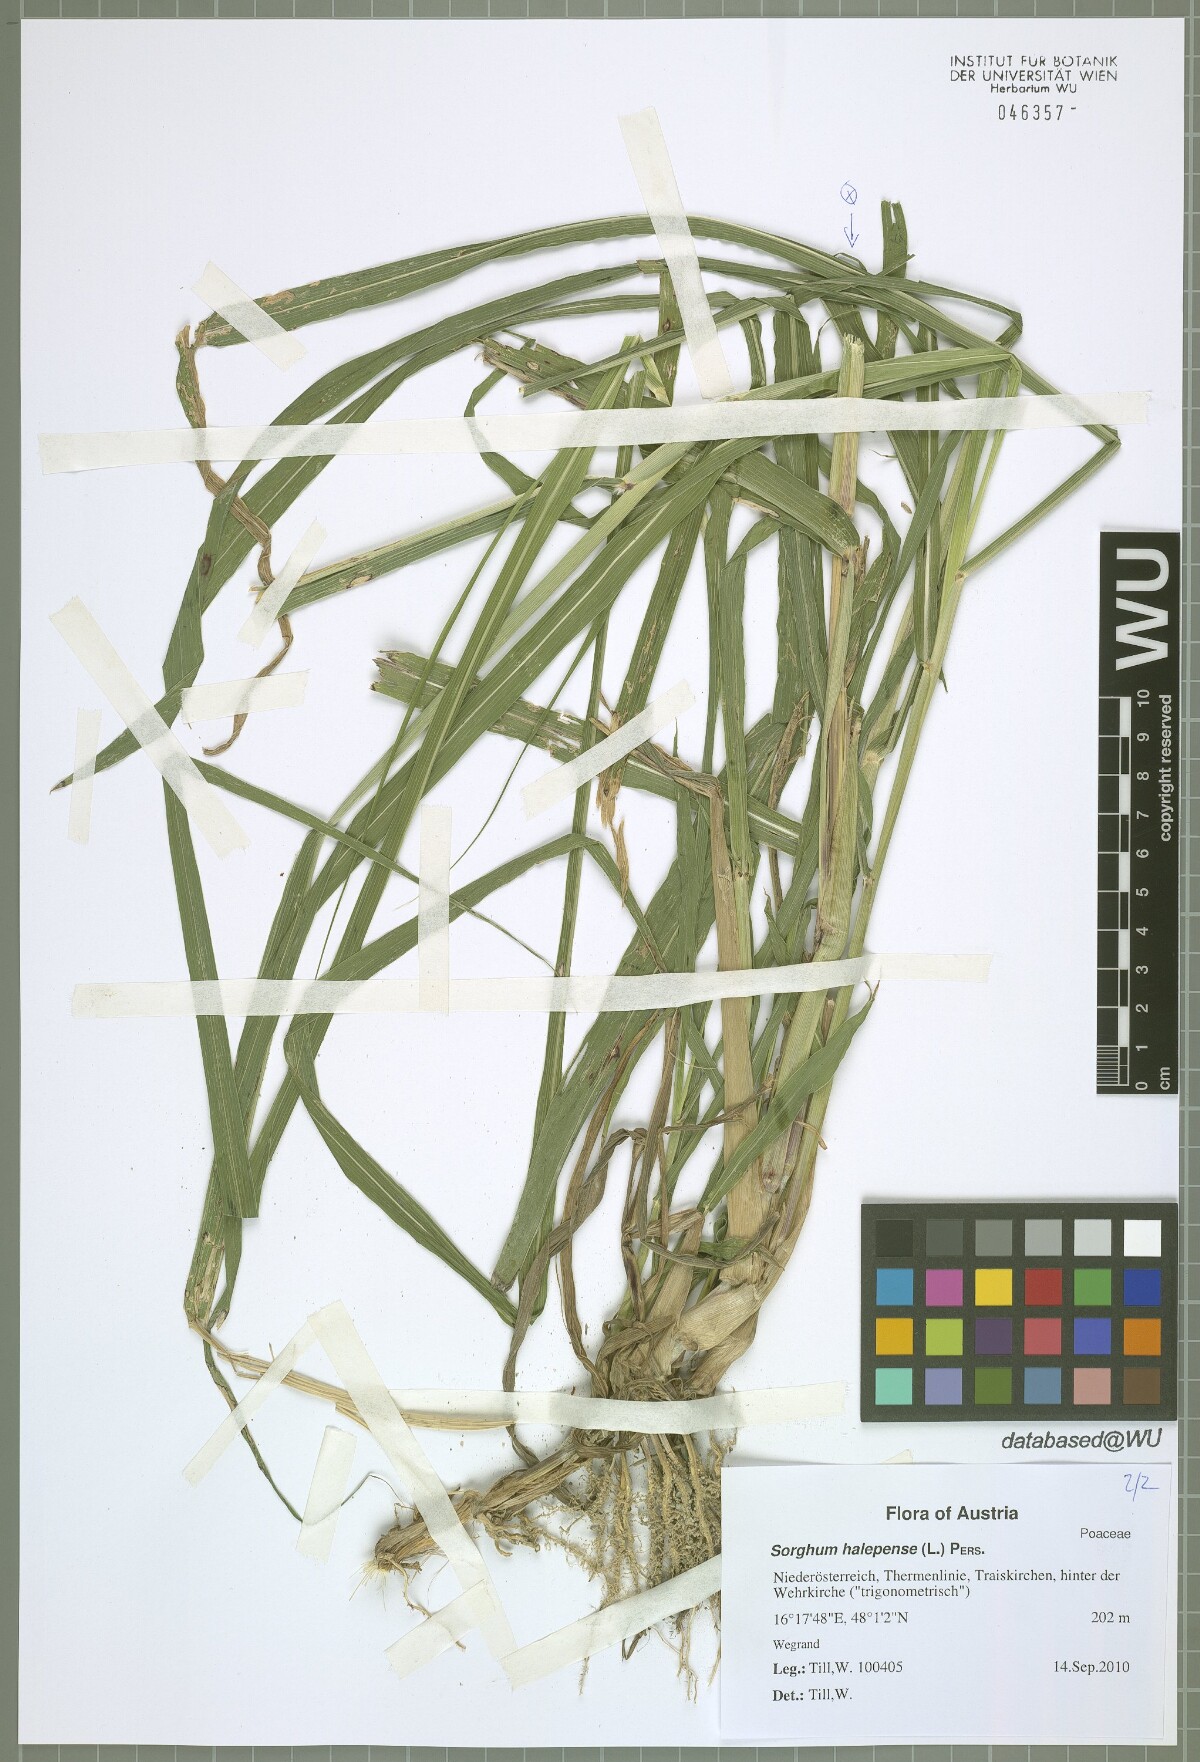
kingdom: Plantae
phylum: Tracheophyta
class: Liliopsida
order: Poales
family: Poaceae
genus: Sorghum
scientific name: Sorghum halepense
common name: Johnson-grass
